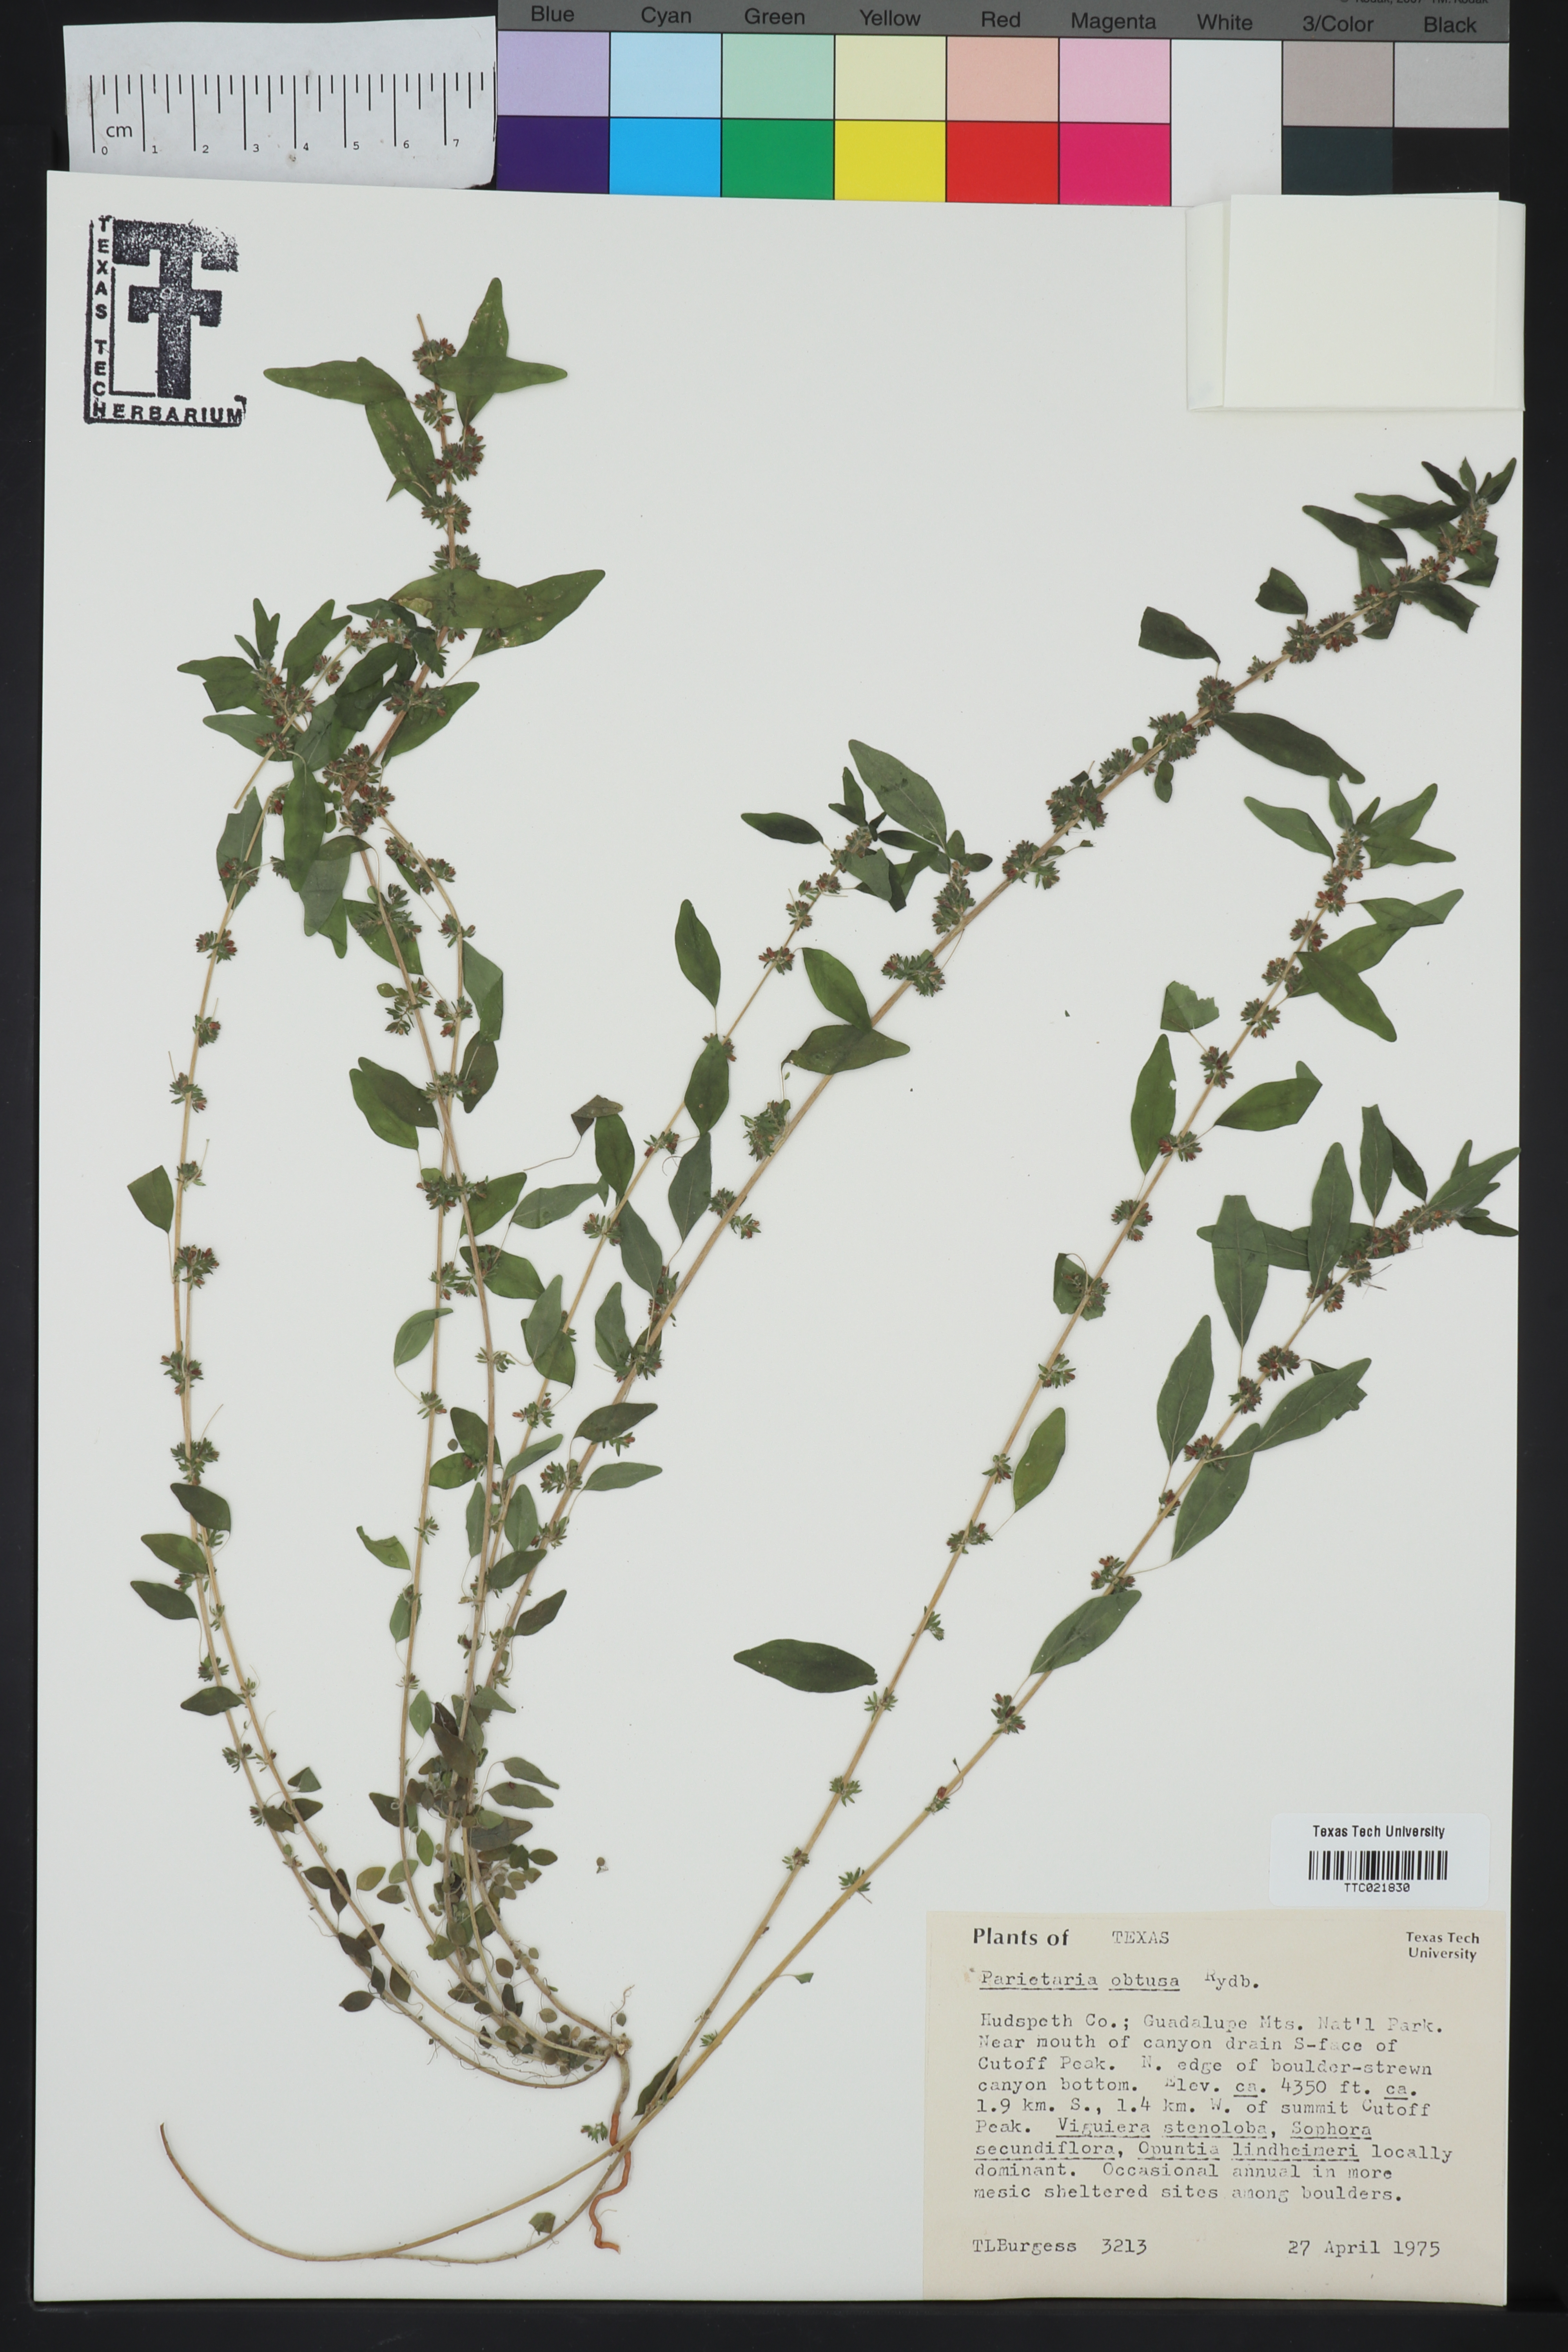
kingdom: Plantae
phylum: Tracheophyta
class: Magnoliopsida
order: Rosales
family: Urticaceae
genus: Parietaria
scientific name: Parietaria pensylvanica
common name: Pennsylvania pellitory
